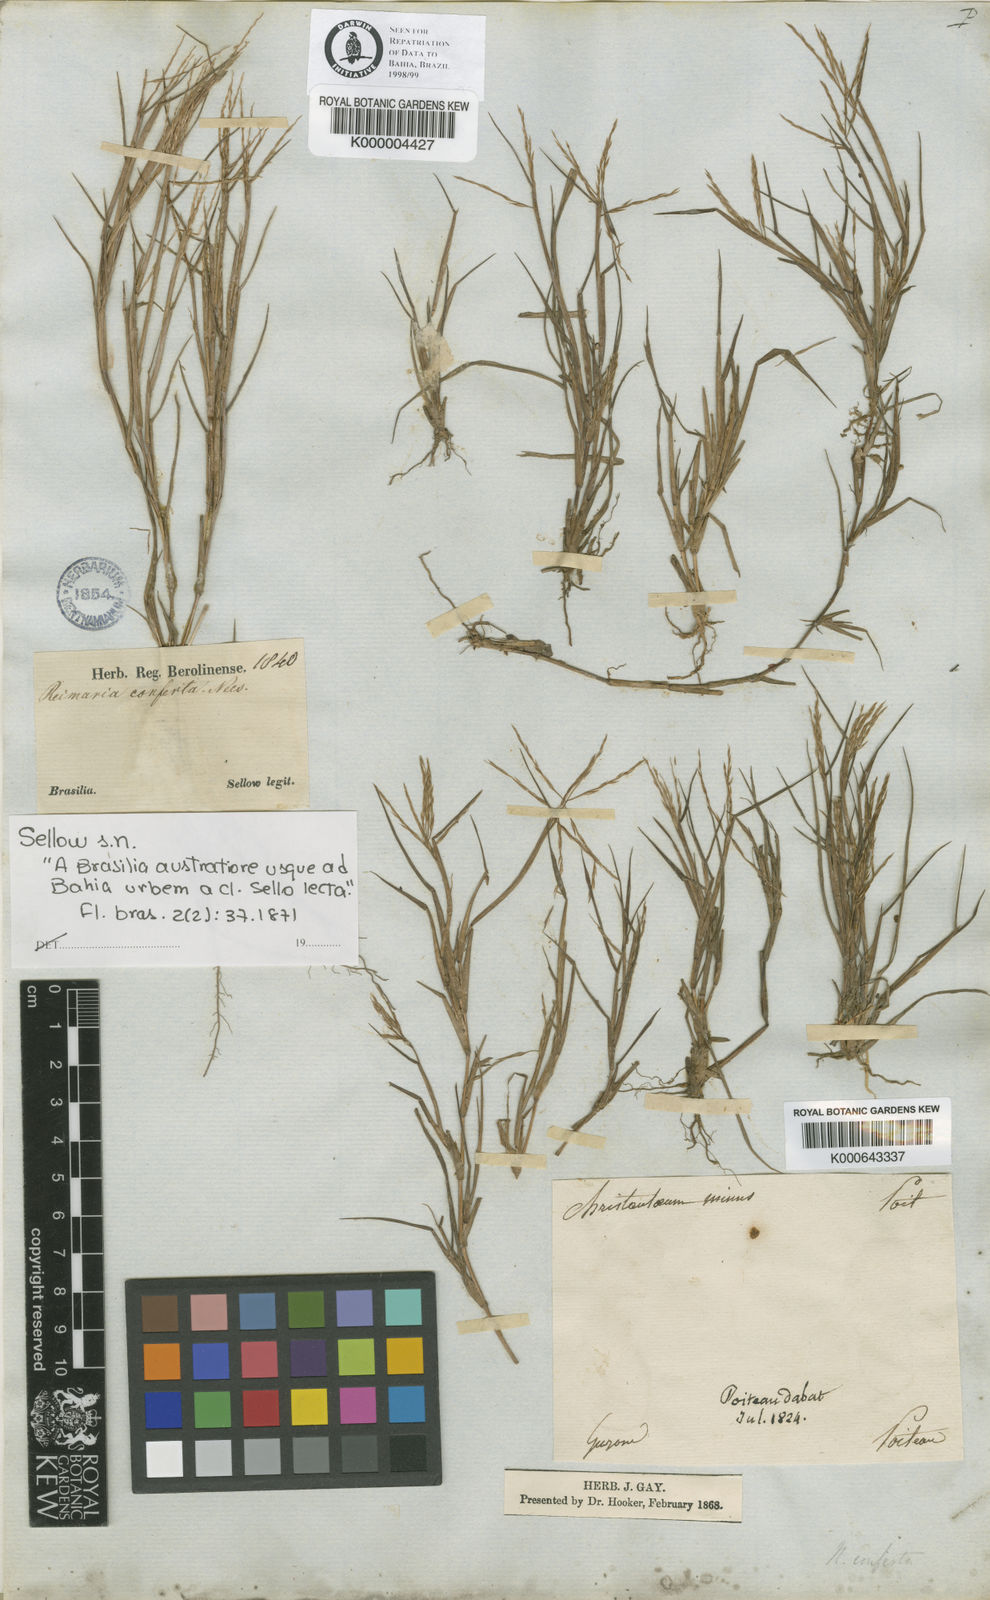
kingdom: Plantae
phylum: Tracheophyta
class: Liliopsida
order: Poales
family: Poaceae
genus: Paspalum
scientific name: Paspalum stagnophilum
